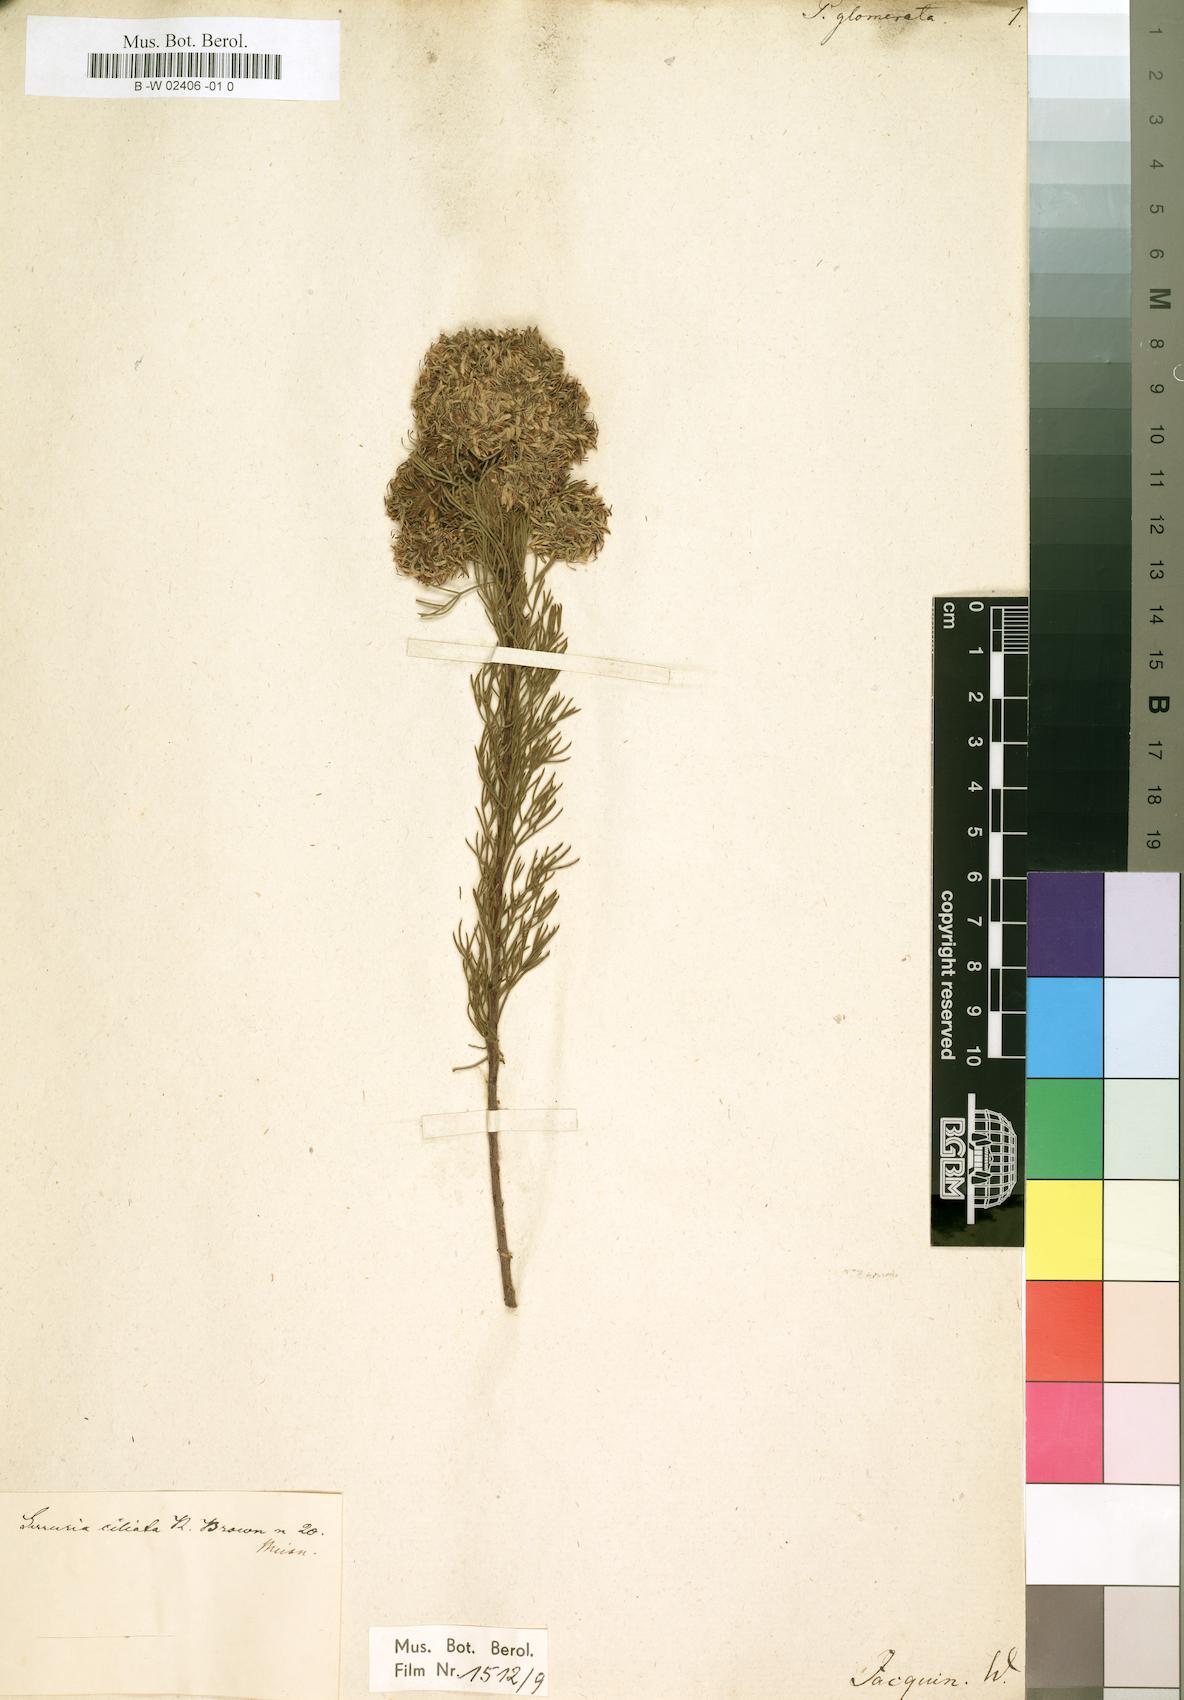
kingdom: Plantae
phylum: Tracheophyta
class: Magnoliopsida
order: Proteales
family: Proteaceae
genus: Serruria
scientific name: Serruria
